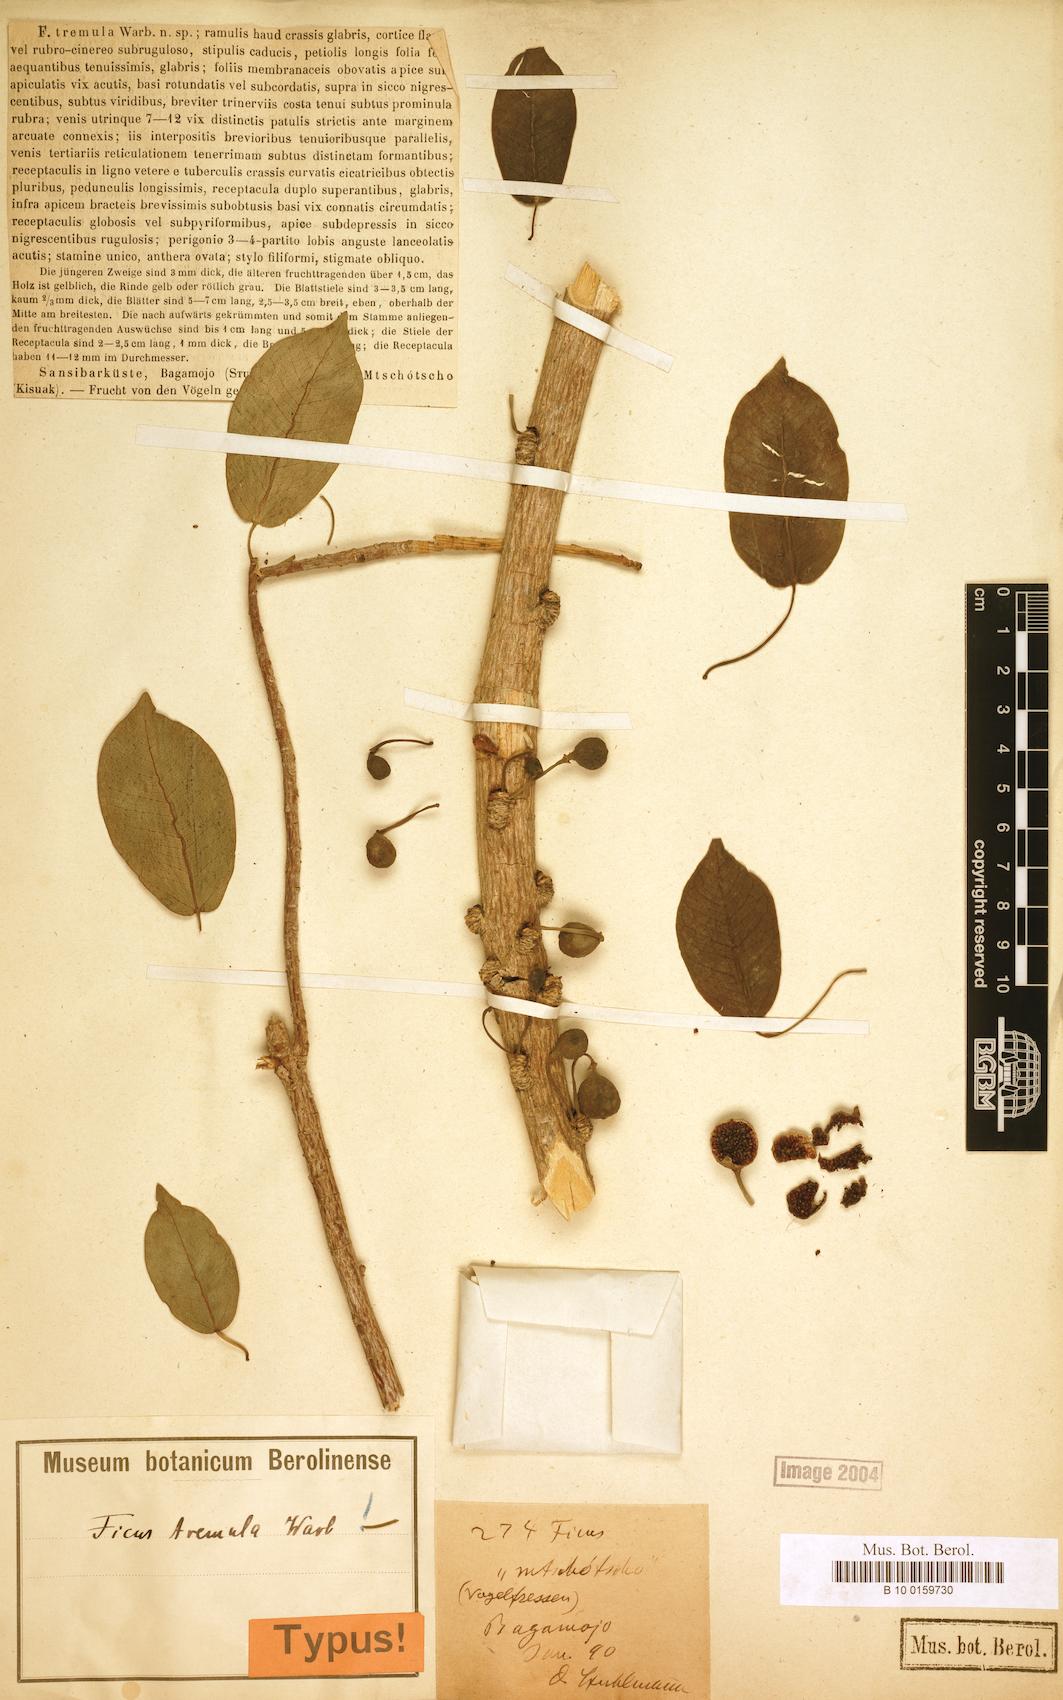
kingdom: Plantae
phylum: Tracheophyta
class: Magnoliopsida
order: Rosales
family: Moraceae
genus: Ficus
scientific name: Ficus tremula
